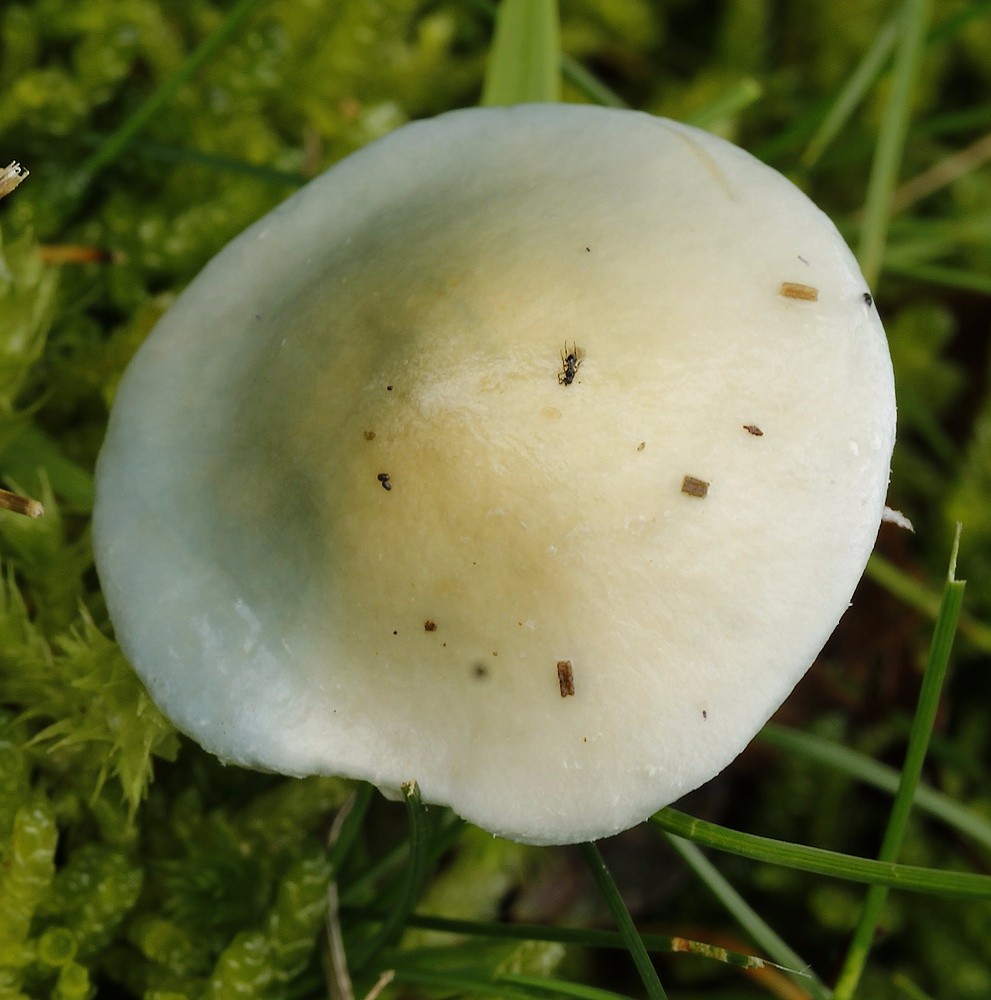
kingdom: Fungi
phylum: Basidiomycota
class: Agaricomycetes
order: Agaricales
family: Strophariaceae
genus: Stropharia
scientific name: Stropharia
